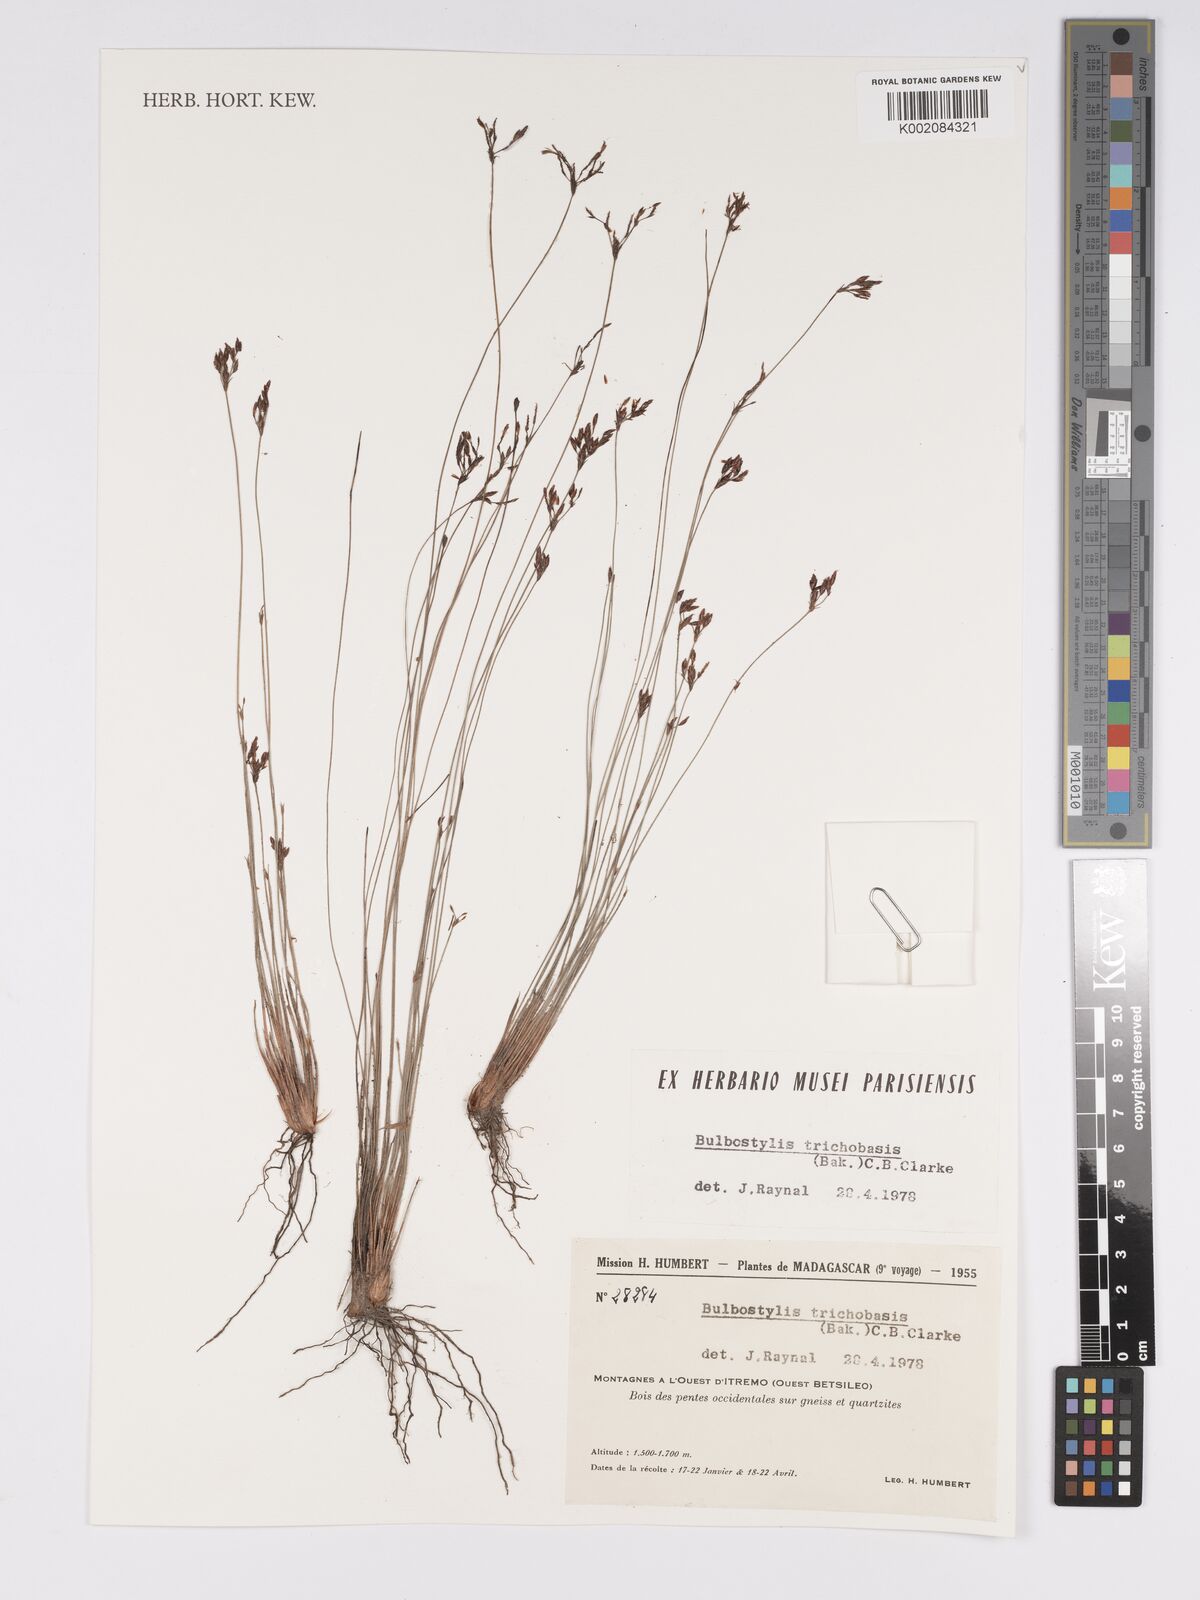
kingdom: Plantae
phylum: Tracheophyta
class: Liliopsida
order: Poales
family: Cyperaceae
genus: Bulbostylis
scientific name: Bulbostylis trichobasis
